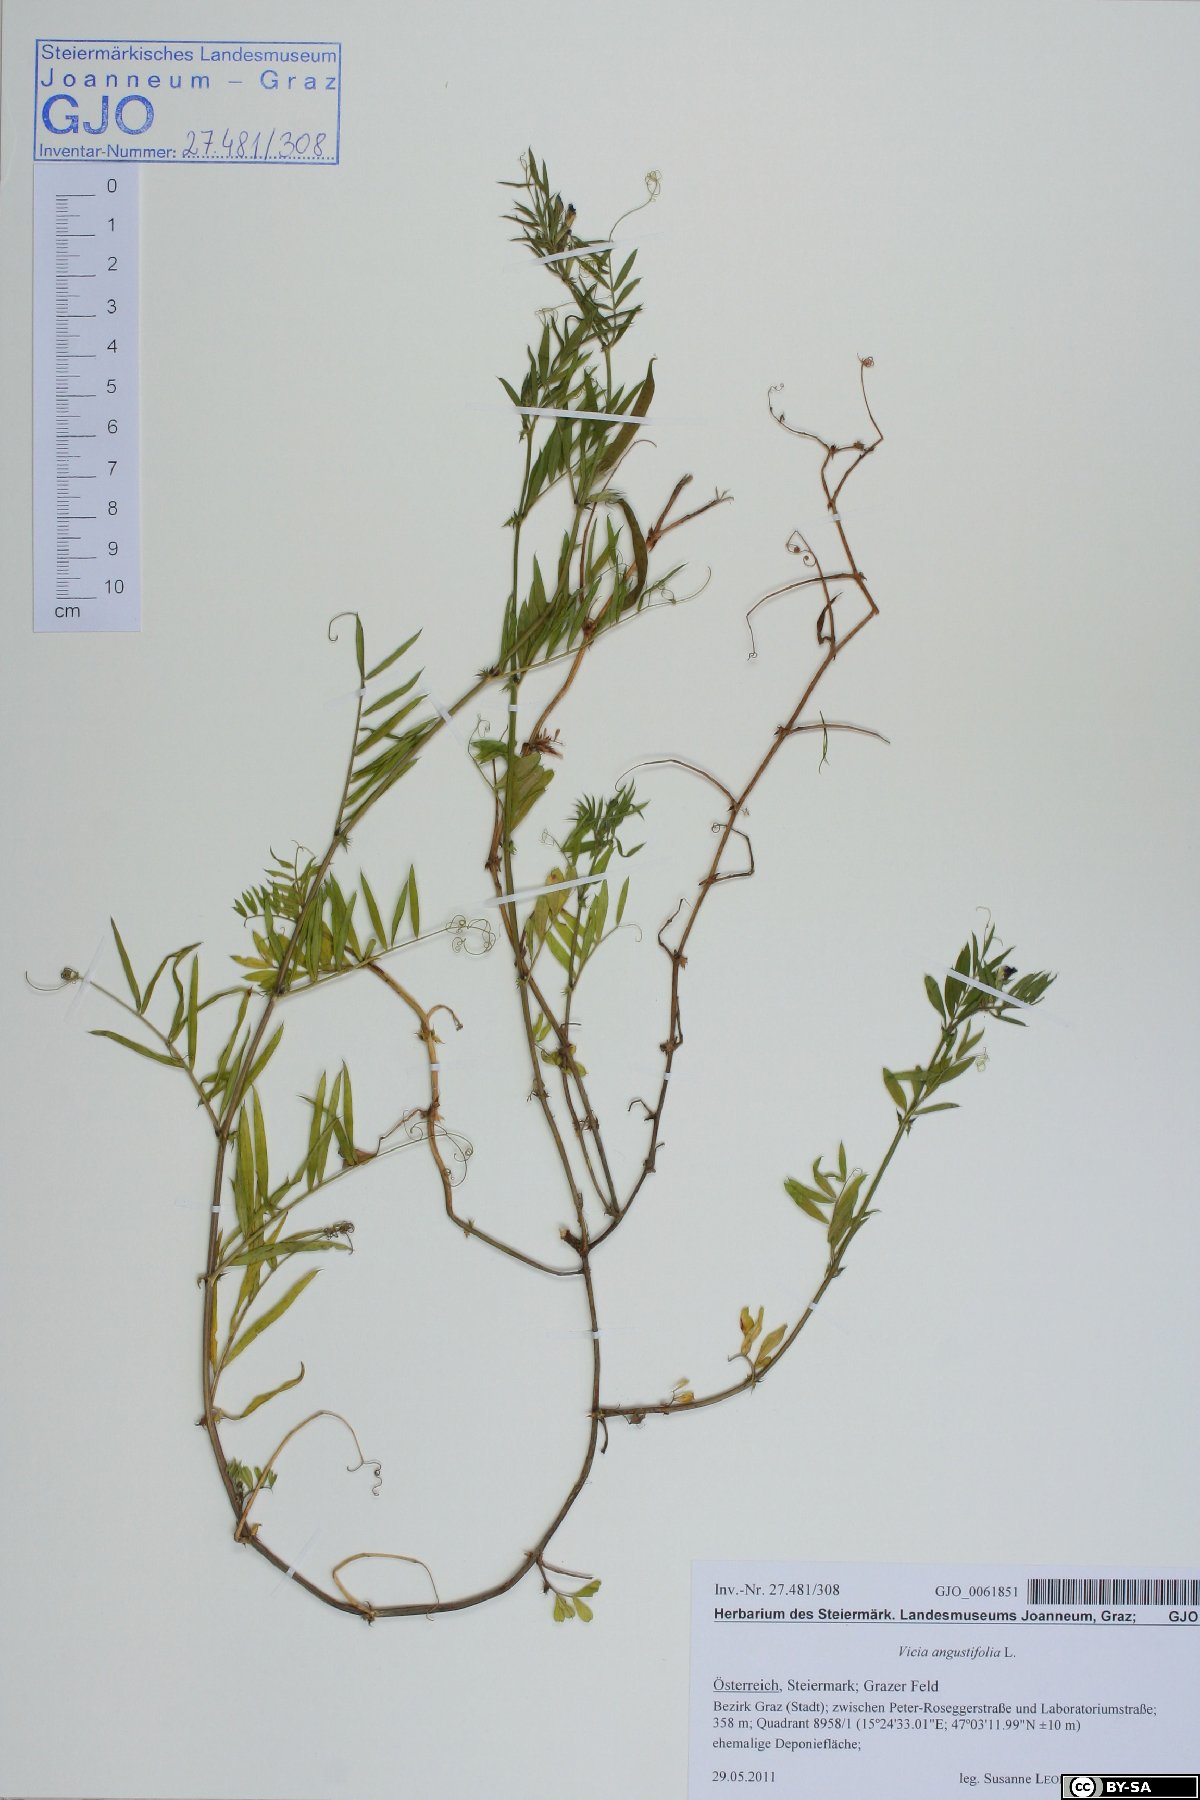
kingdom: Plantae
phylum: Tracheophyta
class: Magnoliopsida
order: Fabales
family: Fabaceae
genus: Vicia
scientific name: Vicia sativa
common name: Garden vetch
